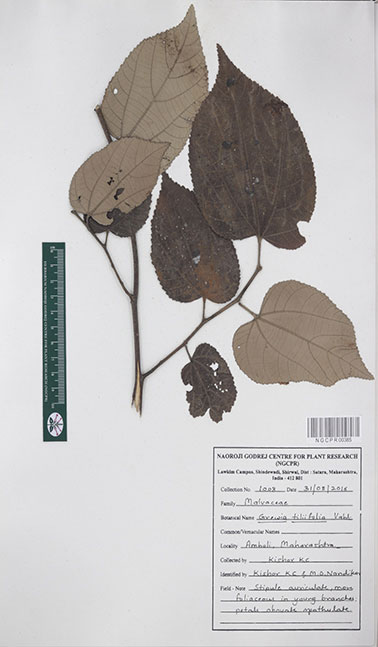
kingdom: Plantae
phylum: Tracheophyta
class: Magnoliopsida
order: Malvales
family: Malvaceae
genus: Grewia
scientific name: Grewia tiliifolia
